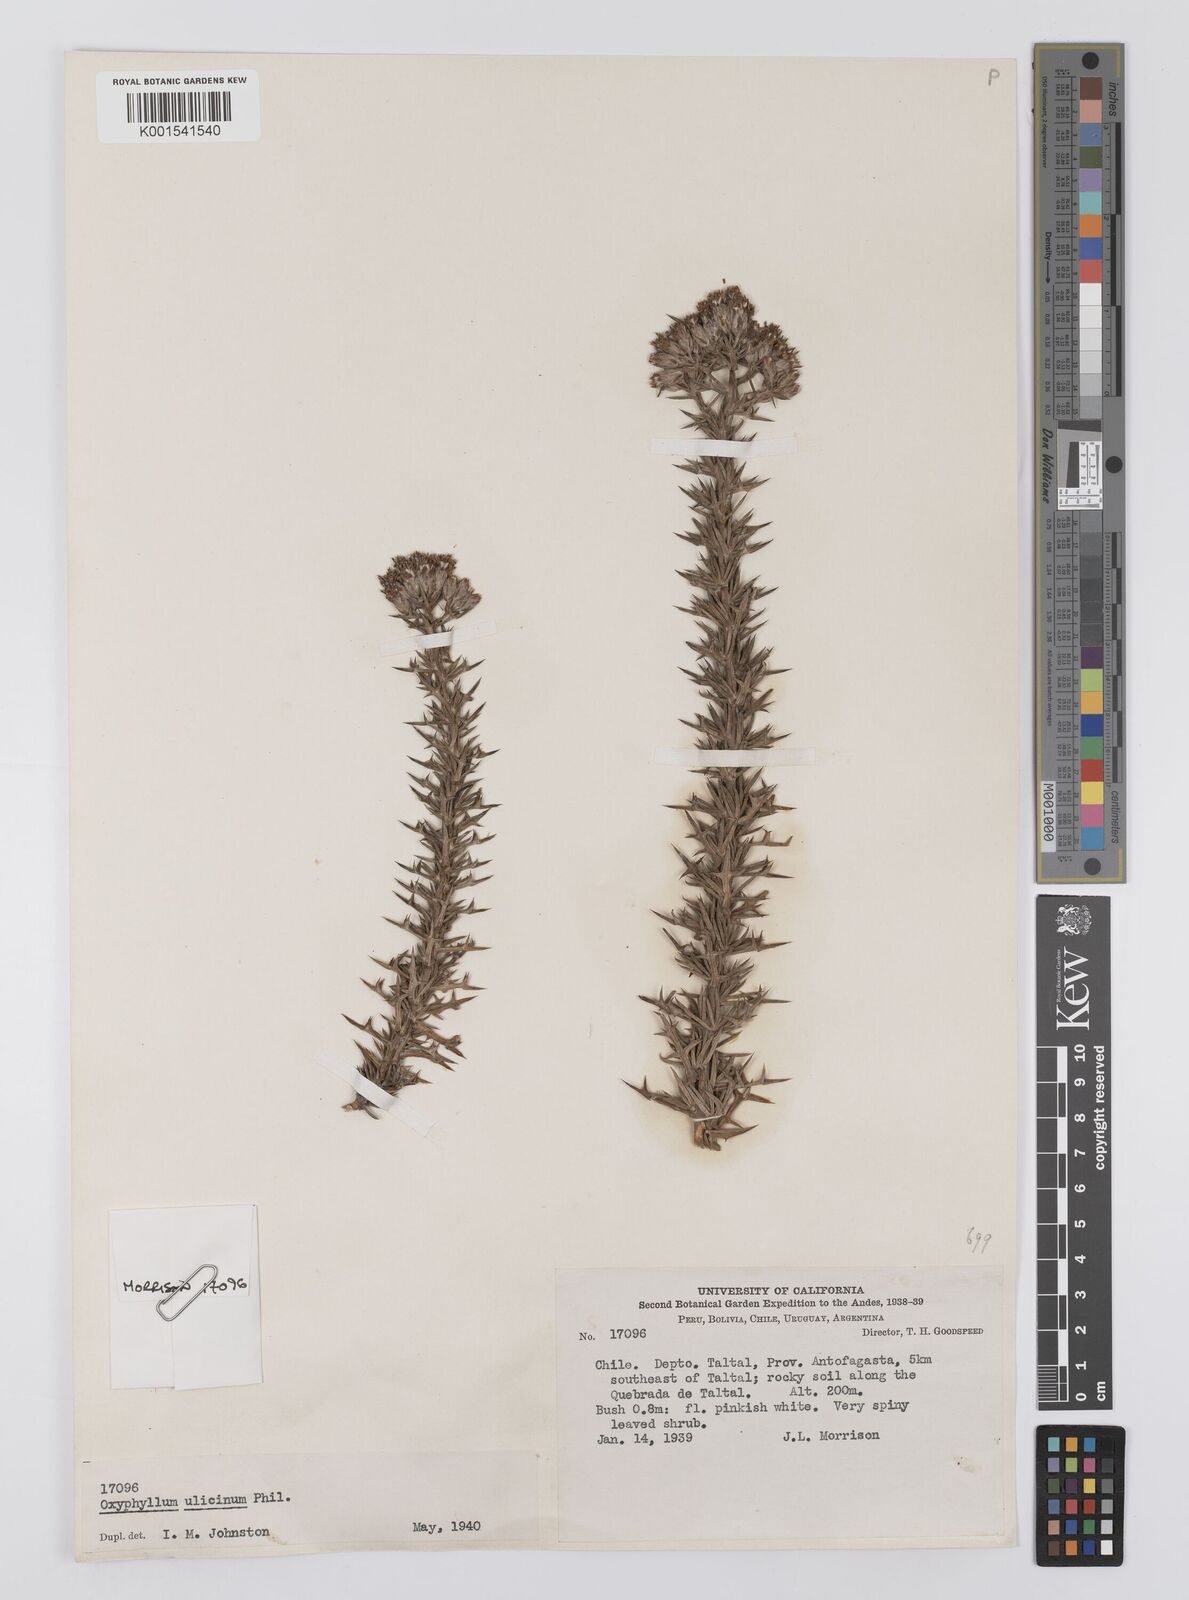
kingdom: Plantae
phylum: Tracheophyta
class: Magnoliopsida
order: Asterales
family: Asteraceae
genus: Oxyphyllum
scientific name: Oxyphyllum ulicinum
